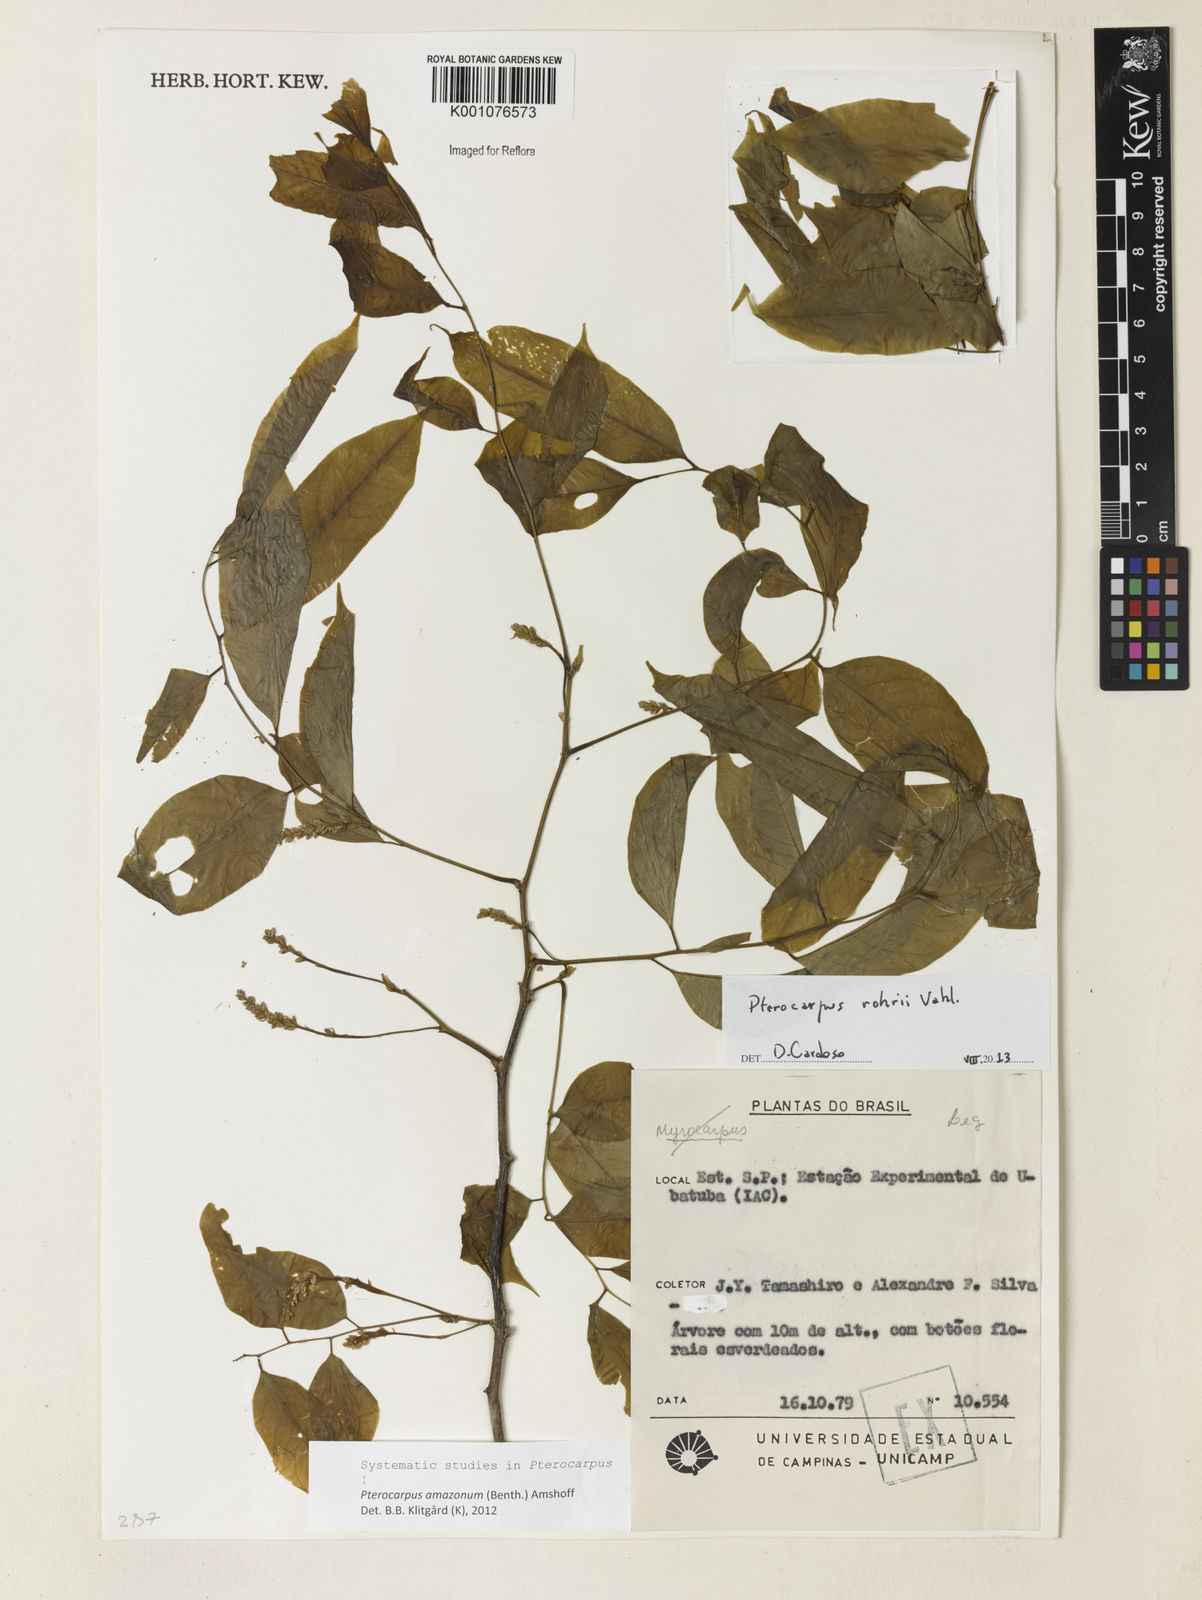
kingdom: Plantae
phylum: Tracheophyta
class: Magnoliopsida
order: Fabales
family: Fabaceae
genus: Pterocarpus
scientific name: Pterocarpus amazonum
